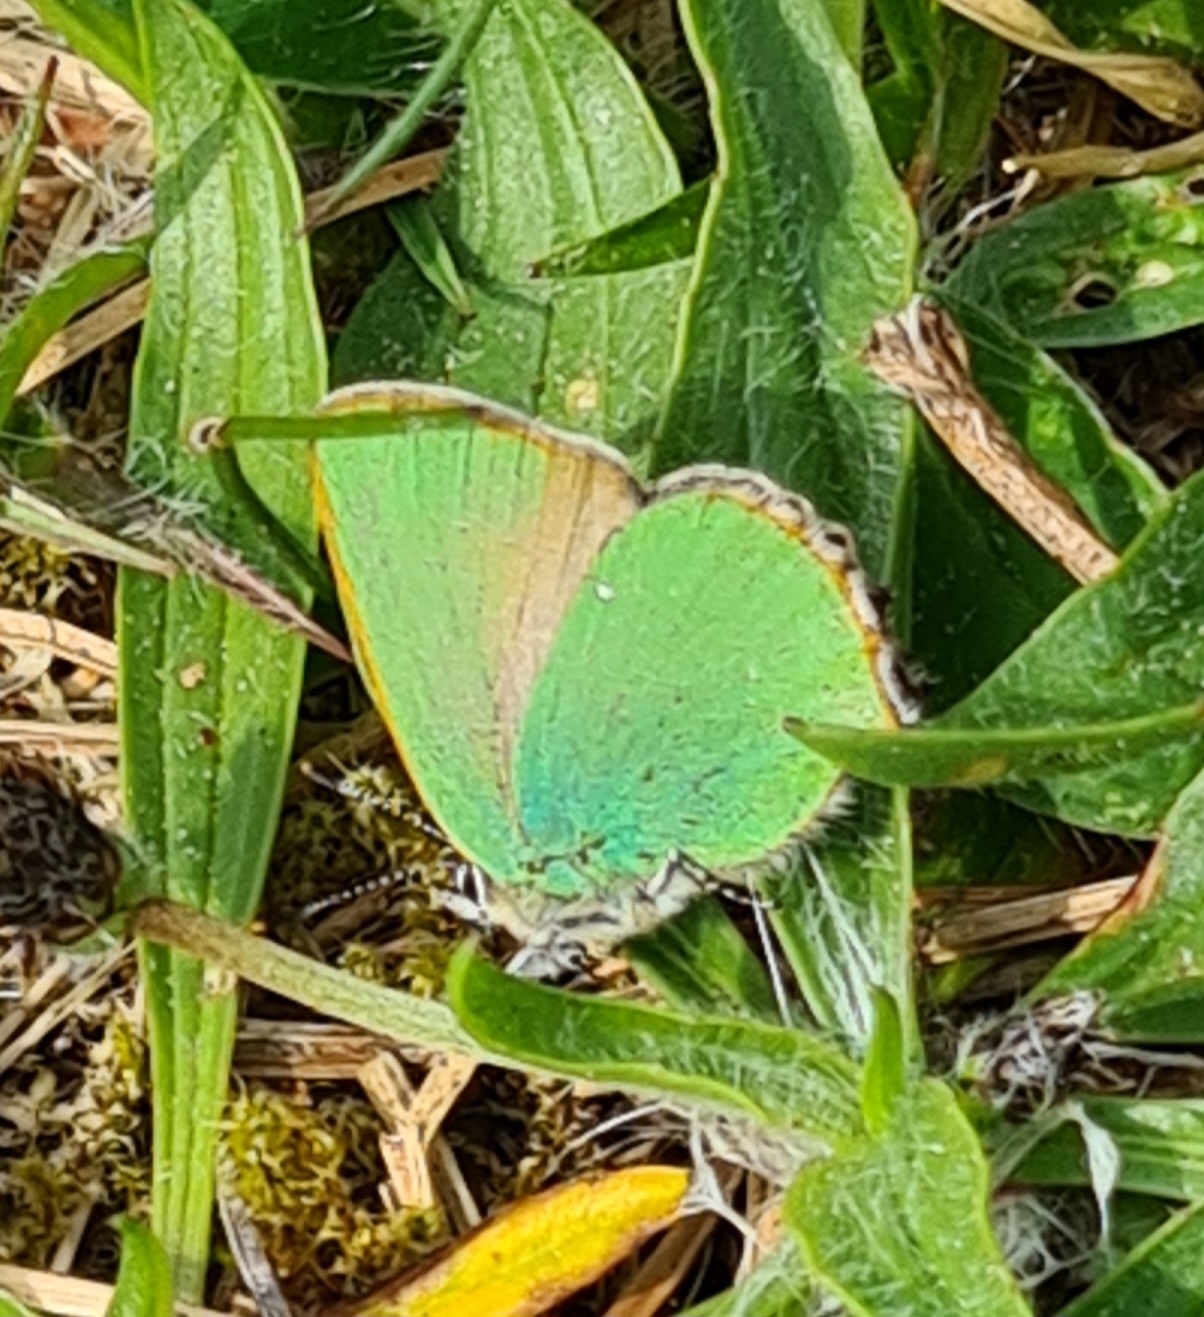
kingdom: Animalia
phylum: Arthropoda
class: Insecta
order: Lepidoptera
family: Lycaenidae
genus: Callophrys
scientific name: Callophrys rubi
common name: Grøn busksommerfugl
